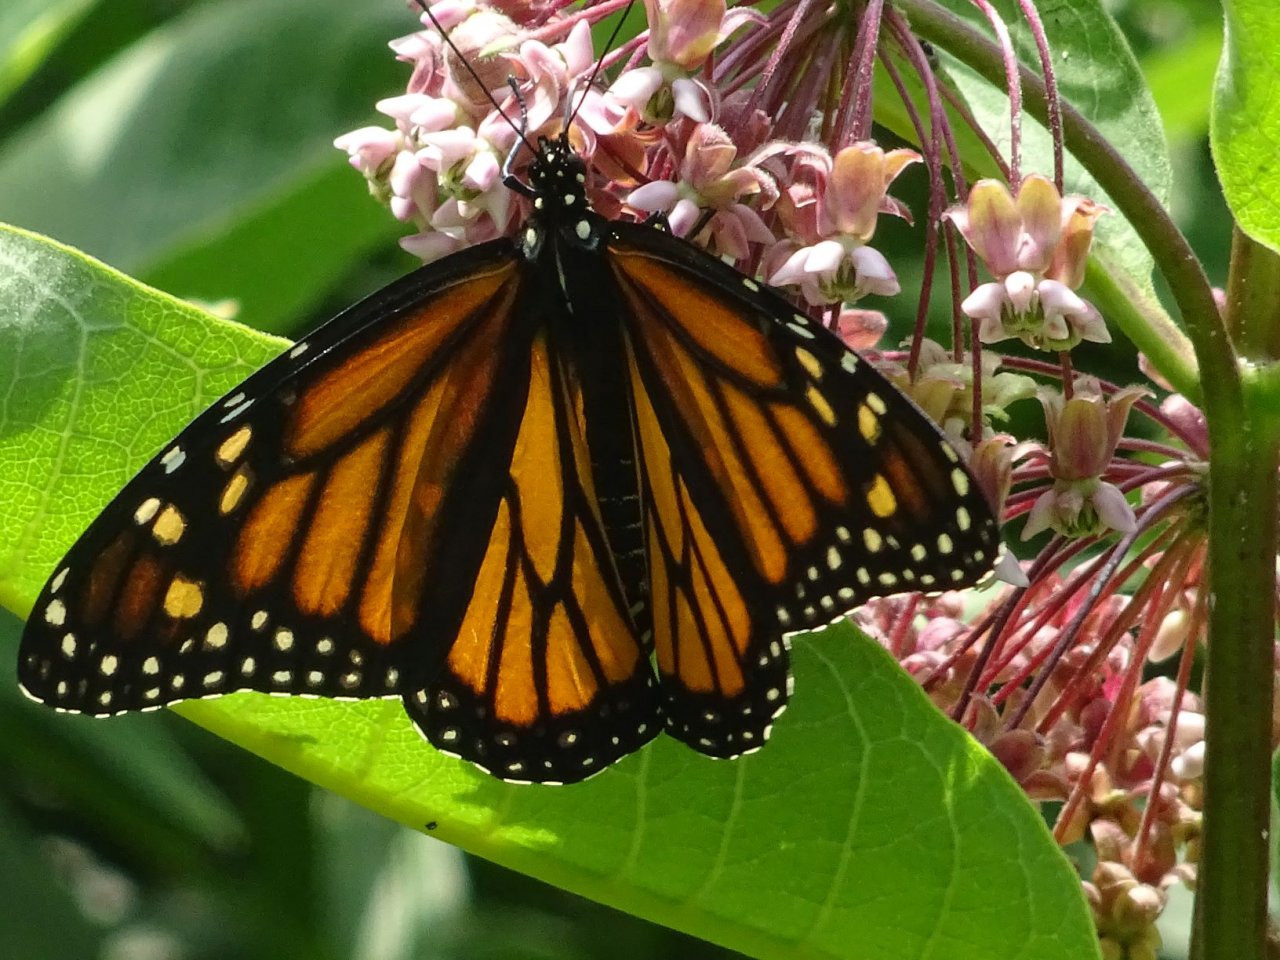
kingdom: Animalia
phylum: Arthropoda
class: Insecta
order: Lepidoptera
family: Nymphalidae
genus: Danaus
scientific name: Danaus plexippus
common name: Monarch
